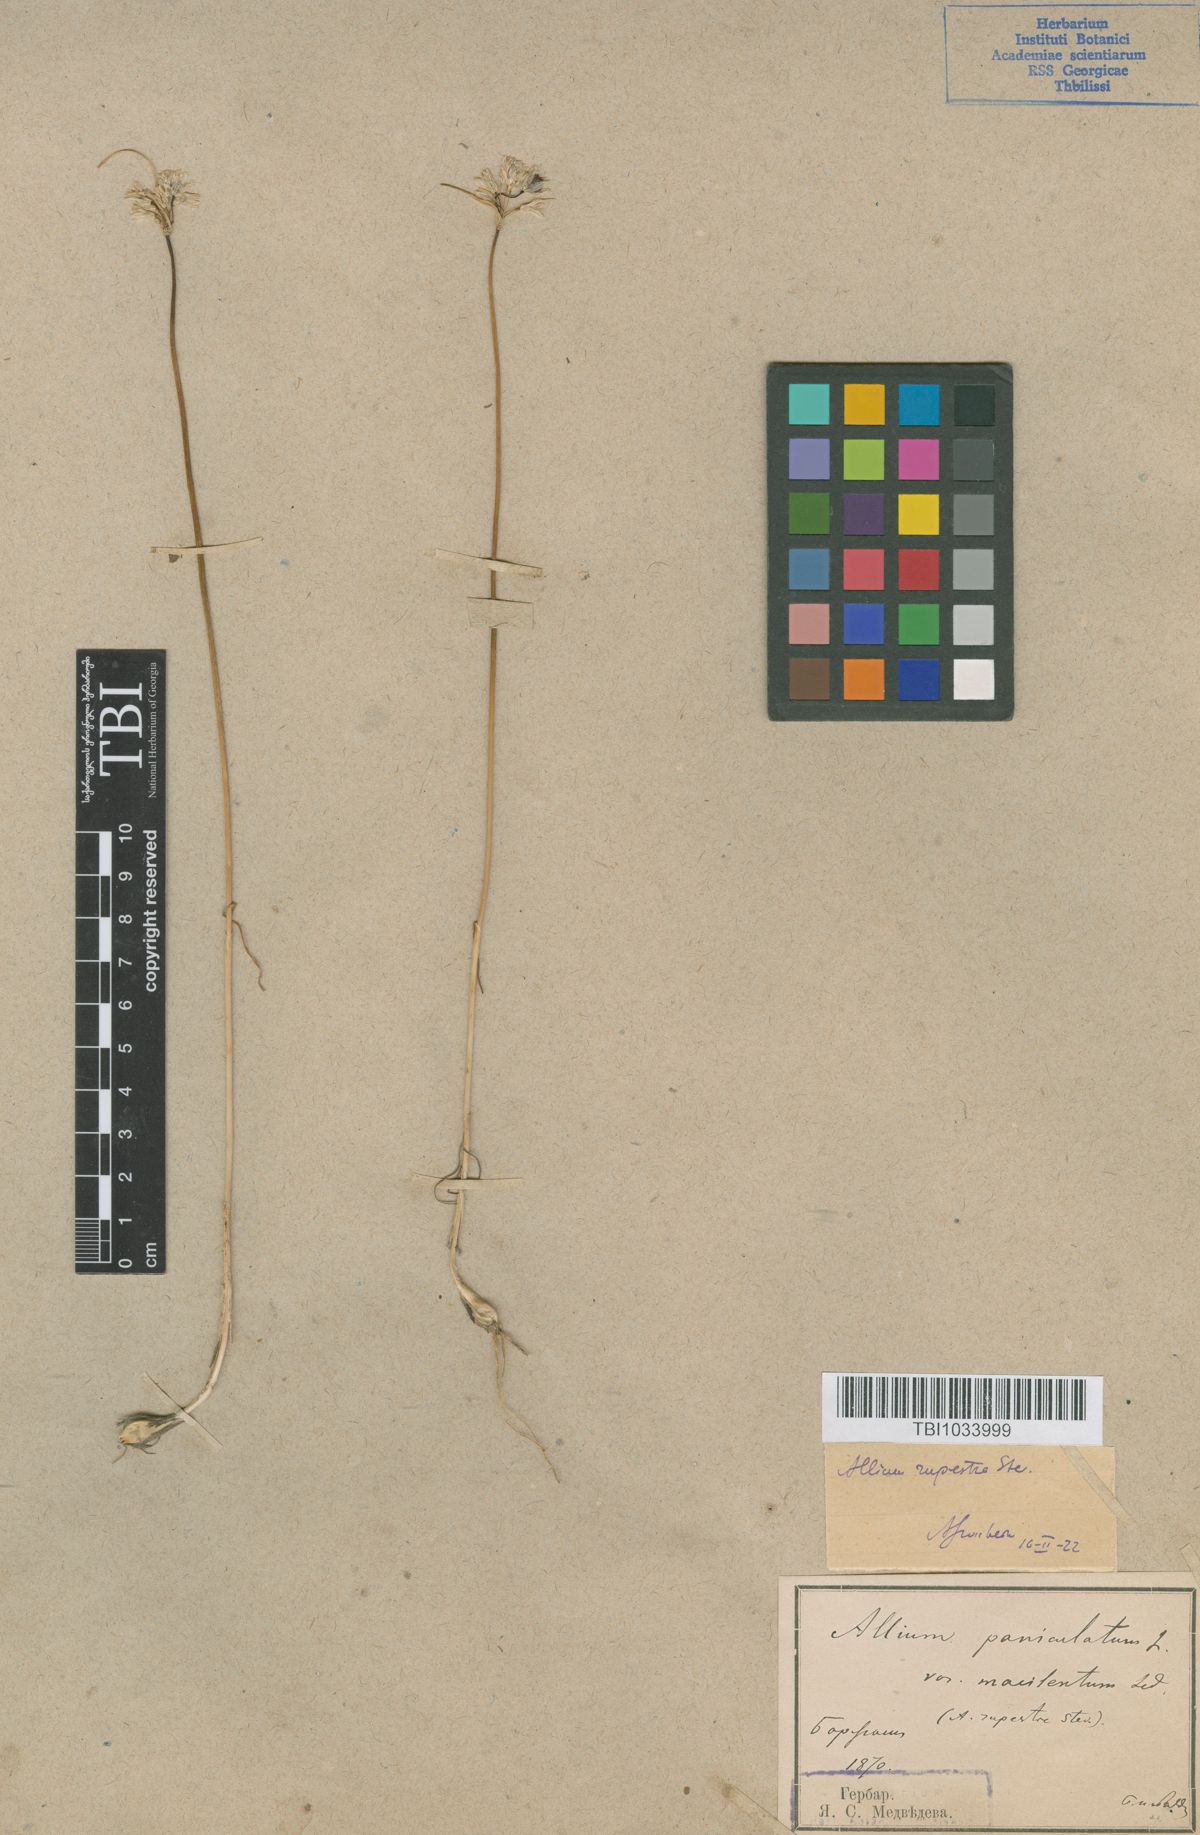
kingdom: Plantae
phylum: Tracheophyta
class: Liliopsida
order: Asparagales
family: Amaryllidaceae
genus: Allium
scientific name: Allium rupestre
